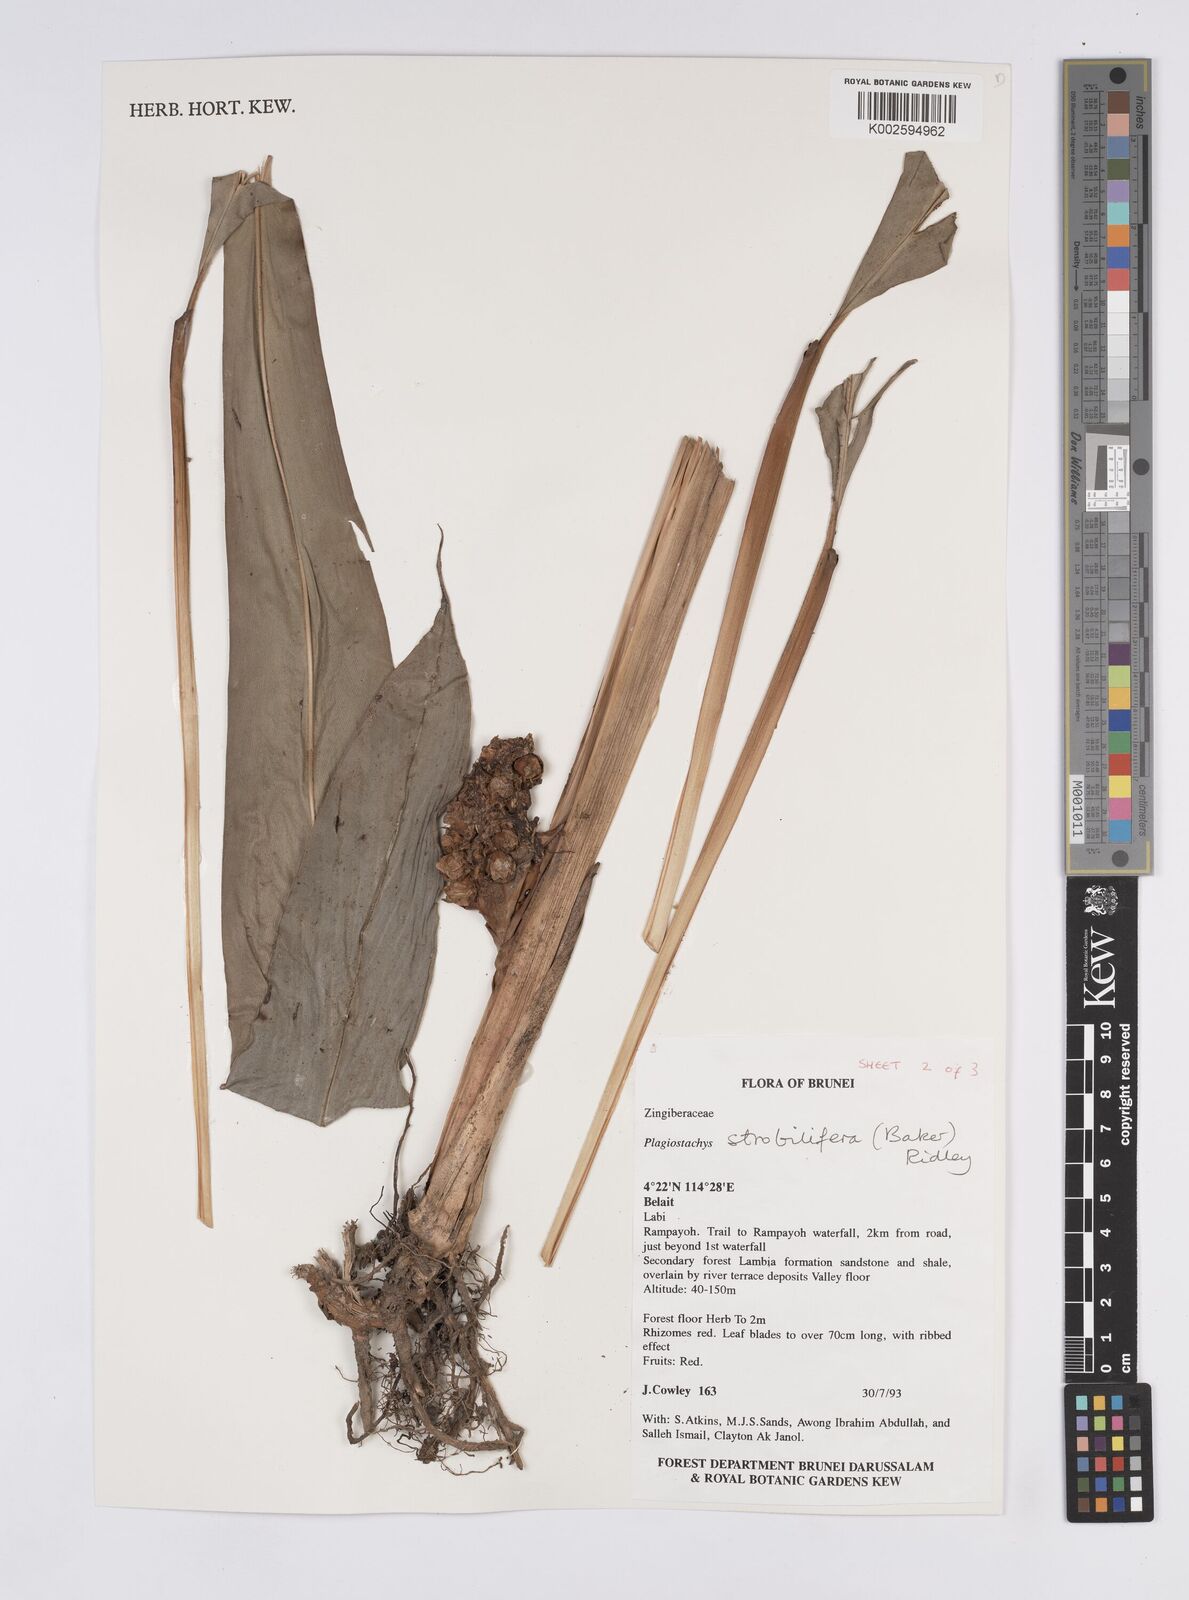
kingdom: Plantae
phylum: Tracheophyta
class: Liliopsida
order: Zingiberales
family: Zingiberaceae
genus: Plagiostachys
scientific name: Plagiostachys strobilifera
